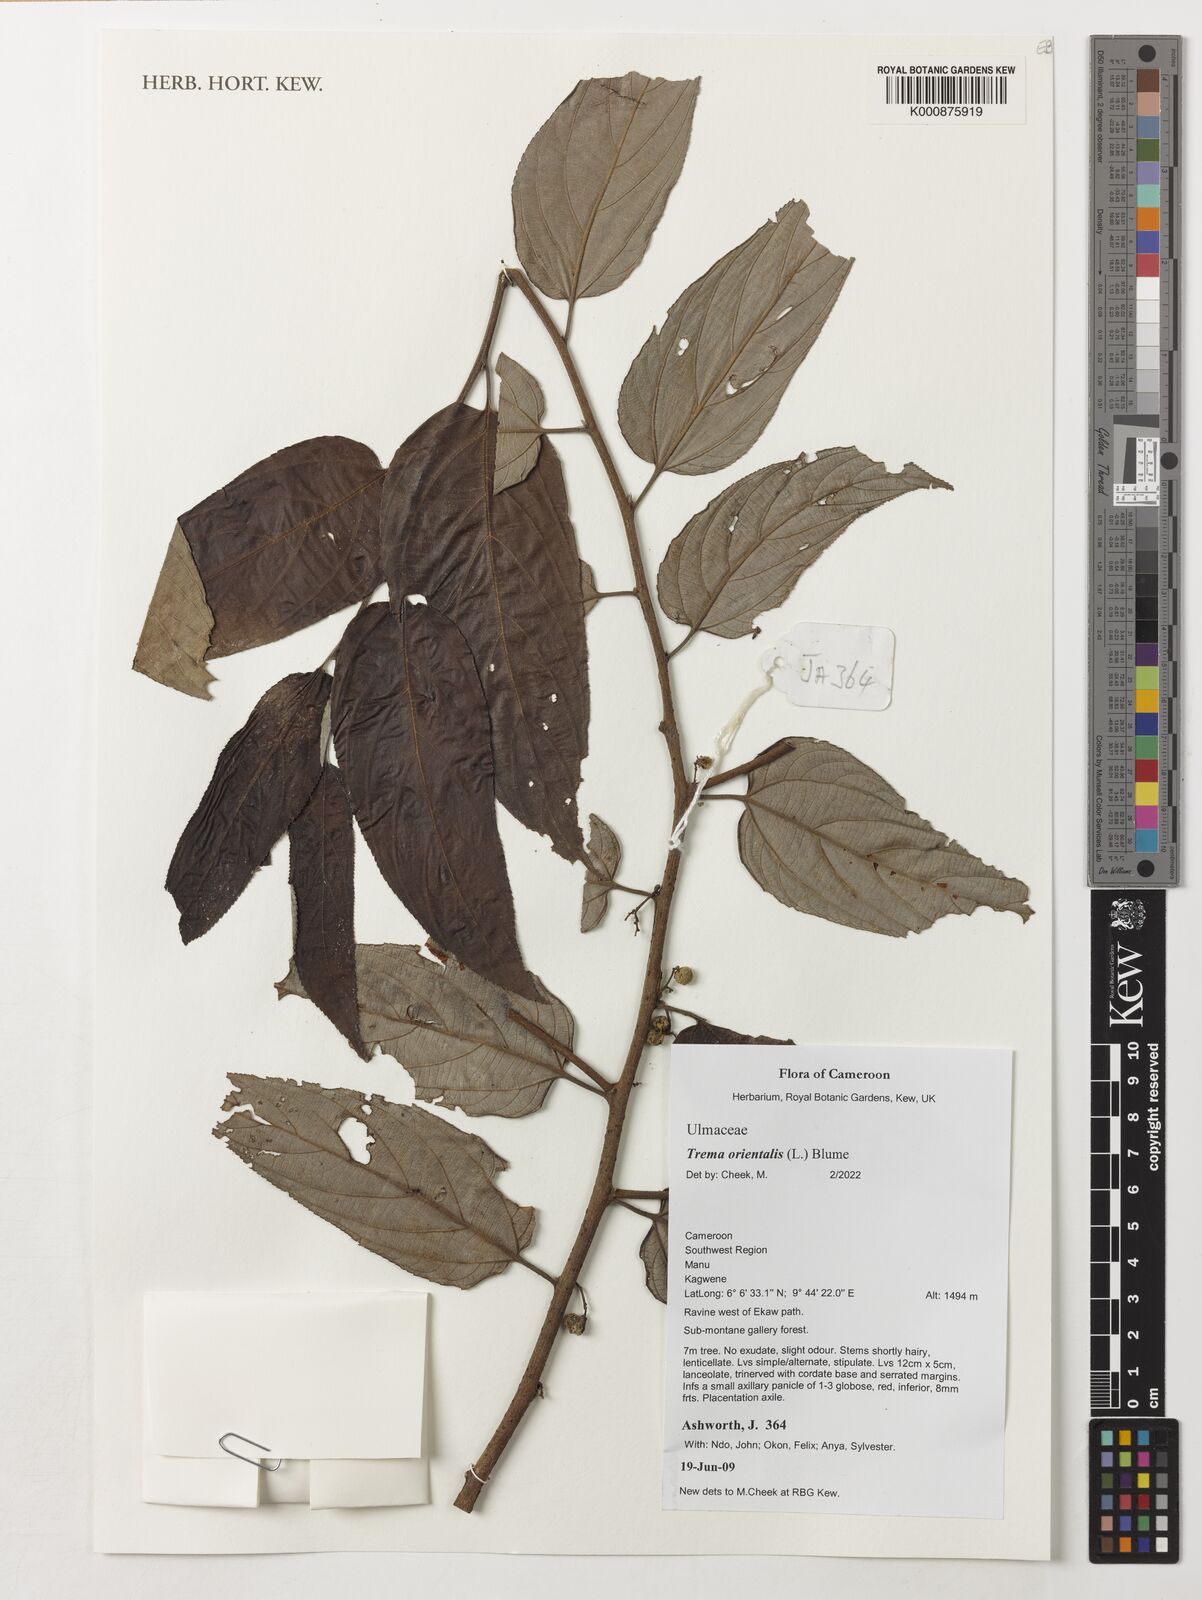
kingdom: Plantae
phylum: Tracheophyta
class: Magnoliopsida
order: Rosales
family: Cannabaceae
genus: Trema
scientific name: Trema orientale
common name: Indian charcoal tree
